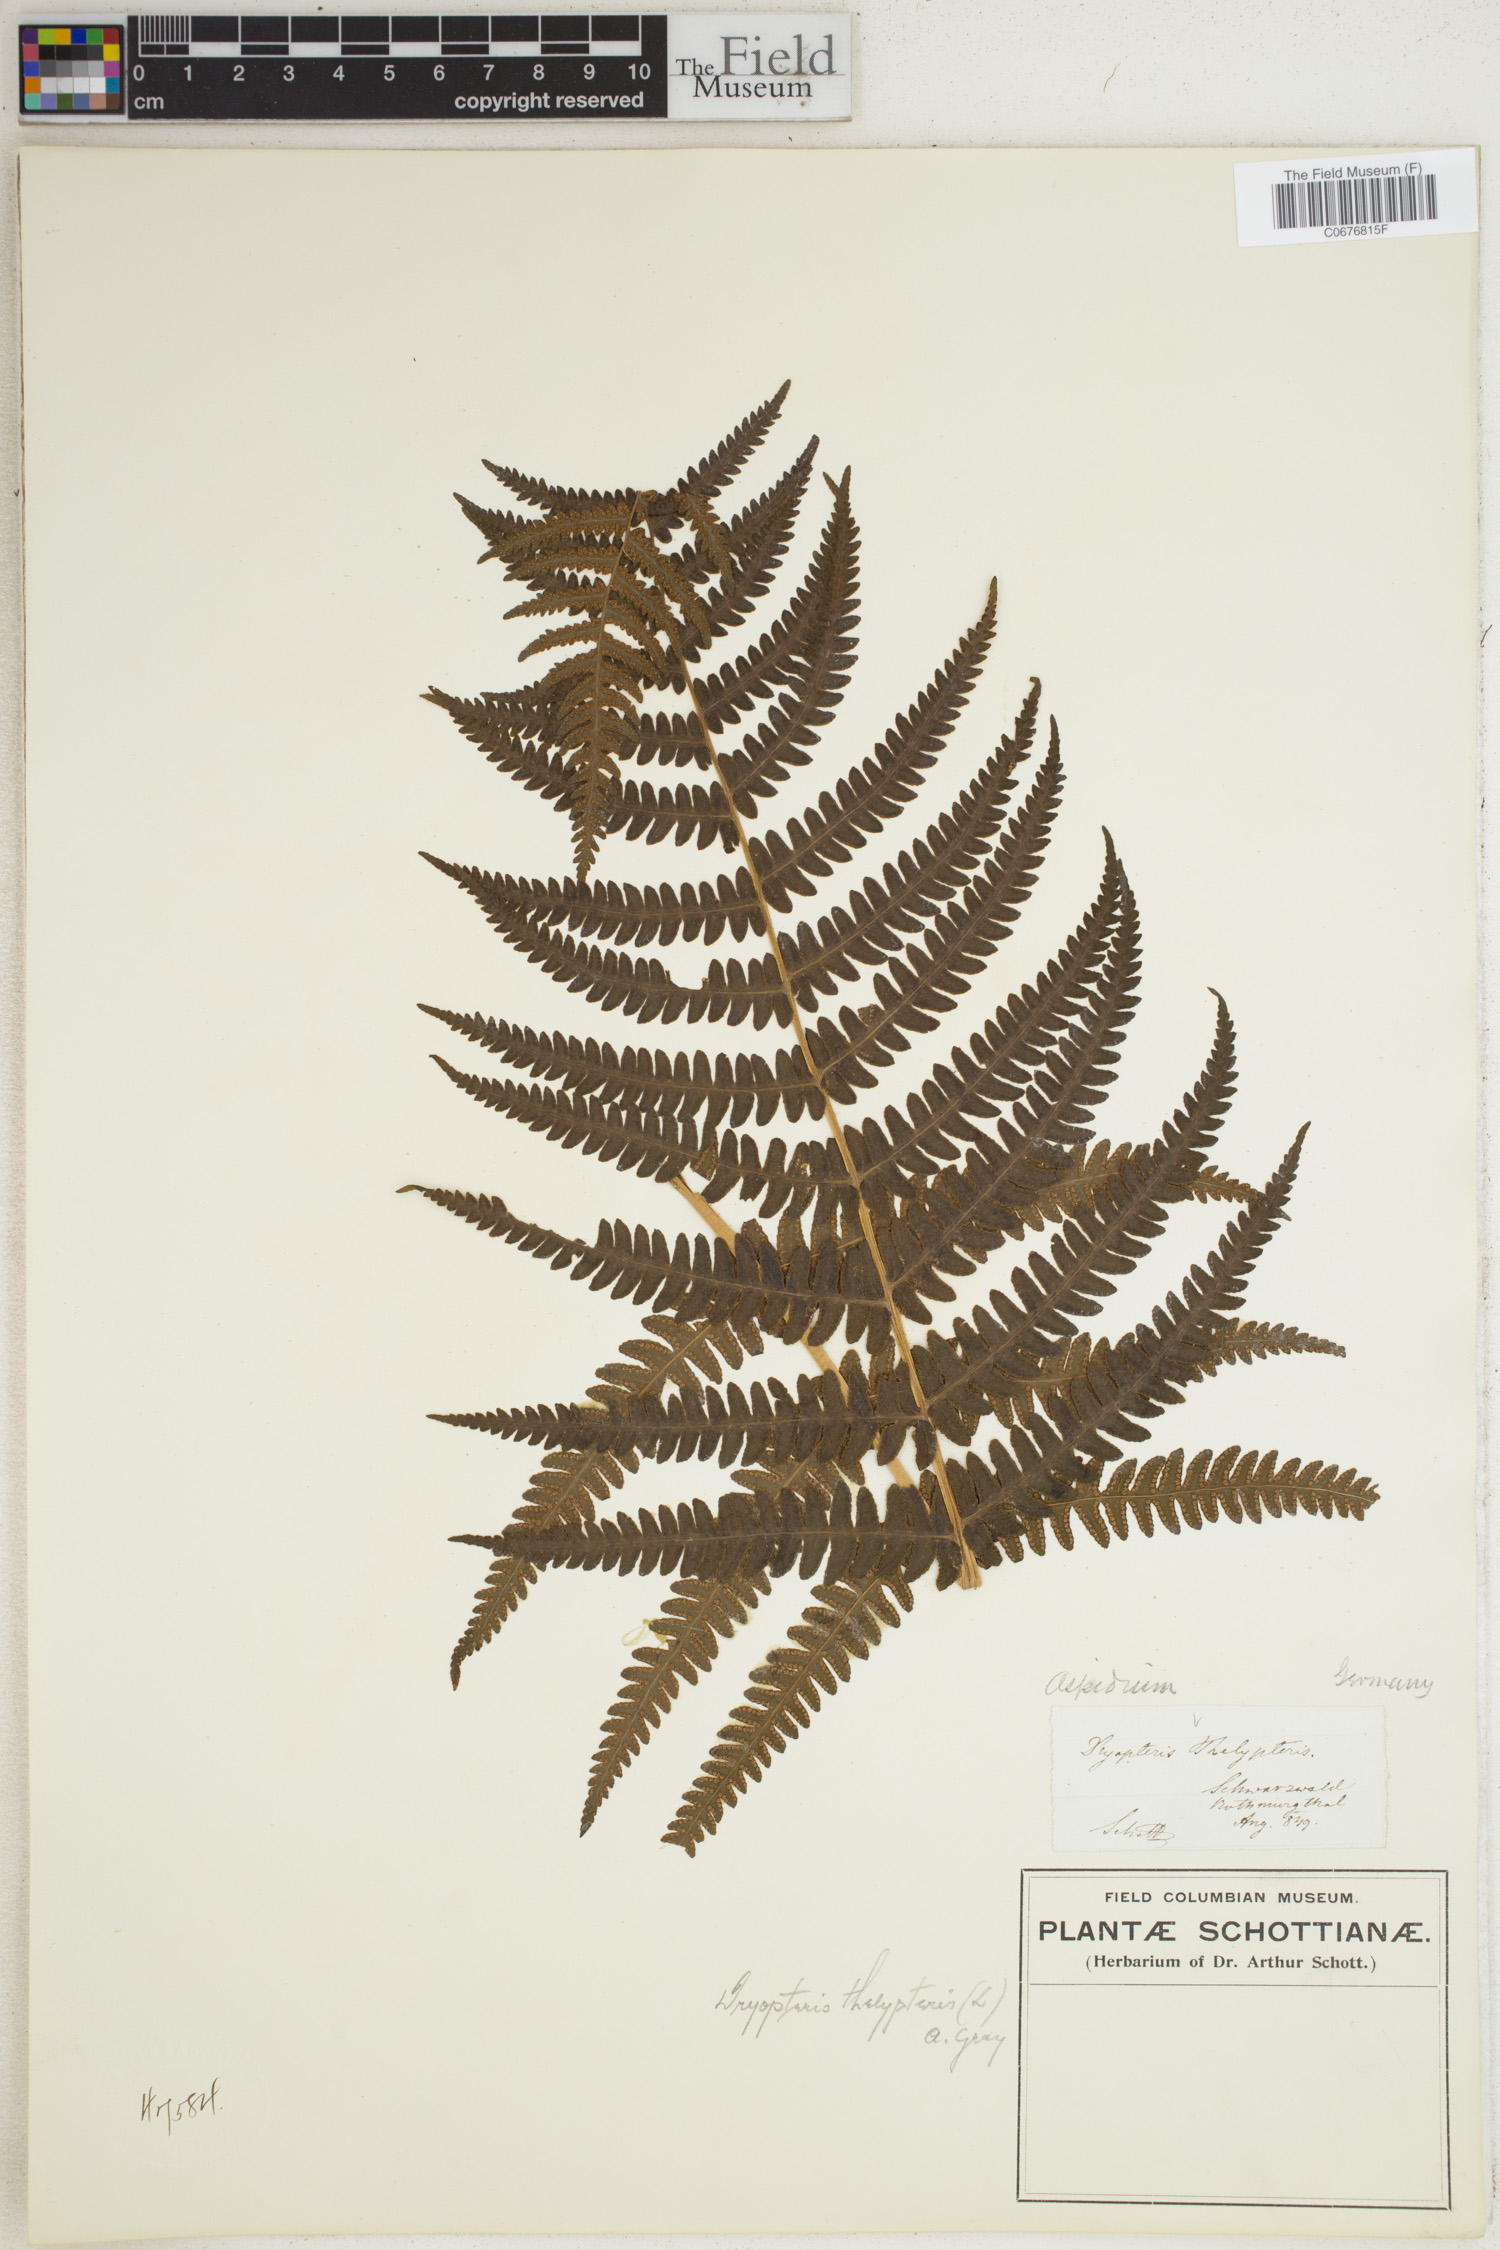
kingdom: Plantae
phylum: Tracheophyta
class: Polypodiopsida
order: Polypodiales
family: Thelypteridaceae
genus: Thelypteris
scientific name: Thelypteris palustris
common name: Marsh fern
